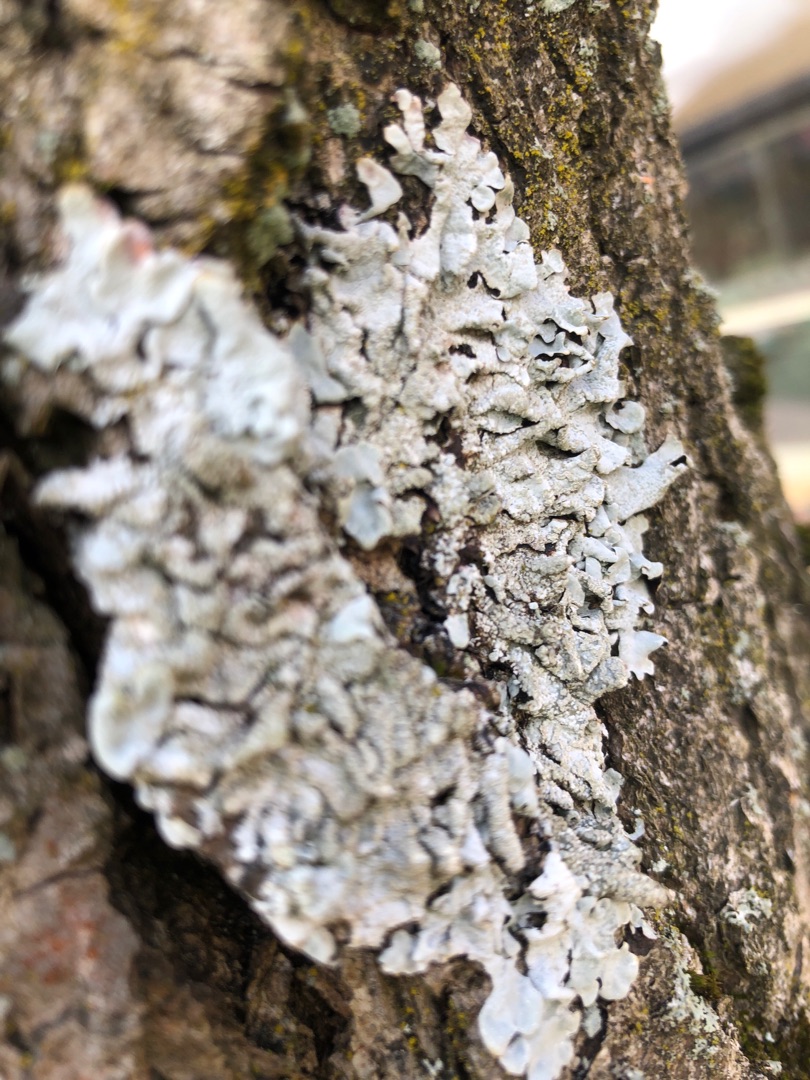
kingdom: Fungi
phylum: Ascomycota
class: Lecanoromycetes
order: Lecanorales
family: Parmeliaceae
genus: Parmelia
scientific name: Parmelia sulcata
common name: Rynket skållav
